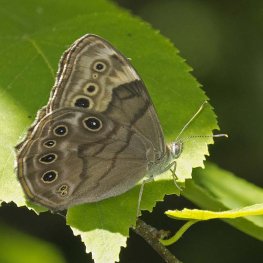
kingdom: Animalia
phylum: Arthropoda
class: Insecta
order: Lepidoptera
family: Nymphalidae
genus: Lethe
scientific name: Lethe anthedon
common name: Northern Pearly-Eye
